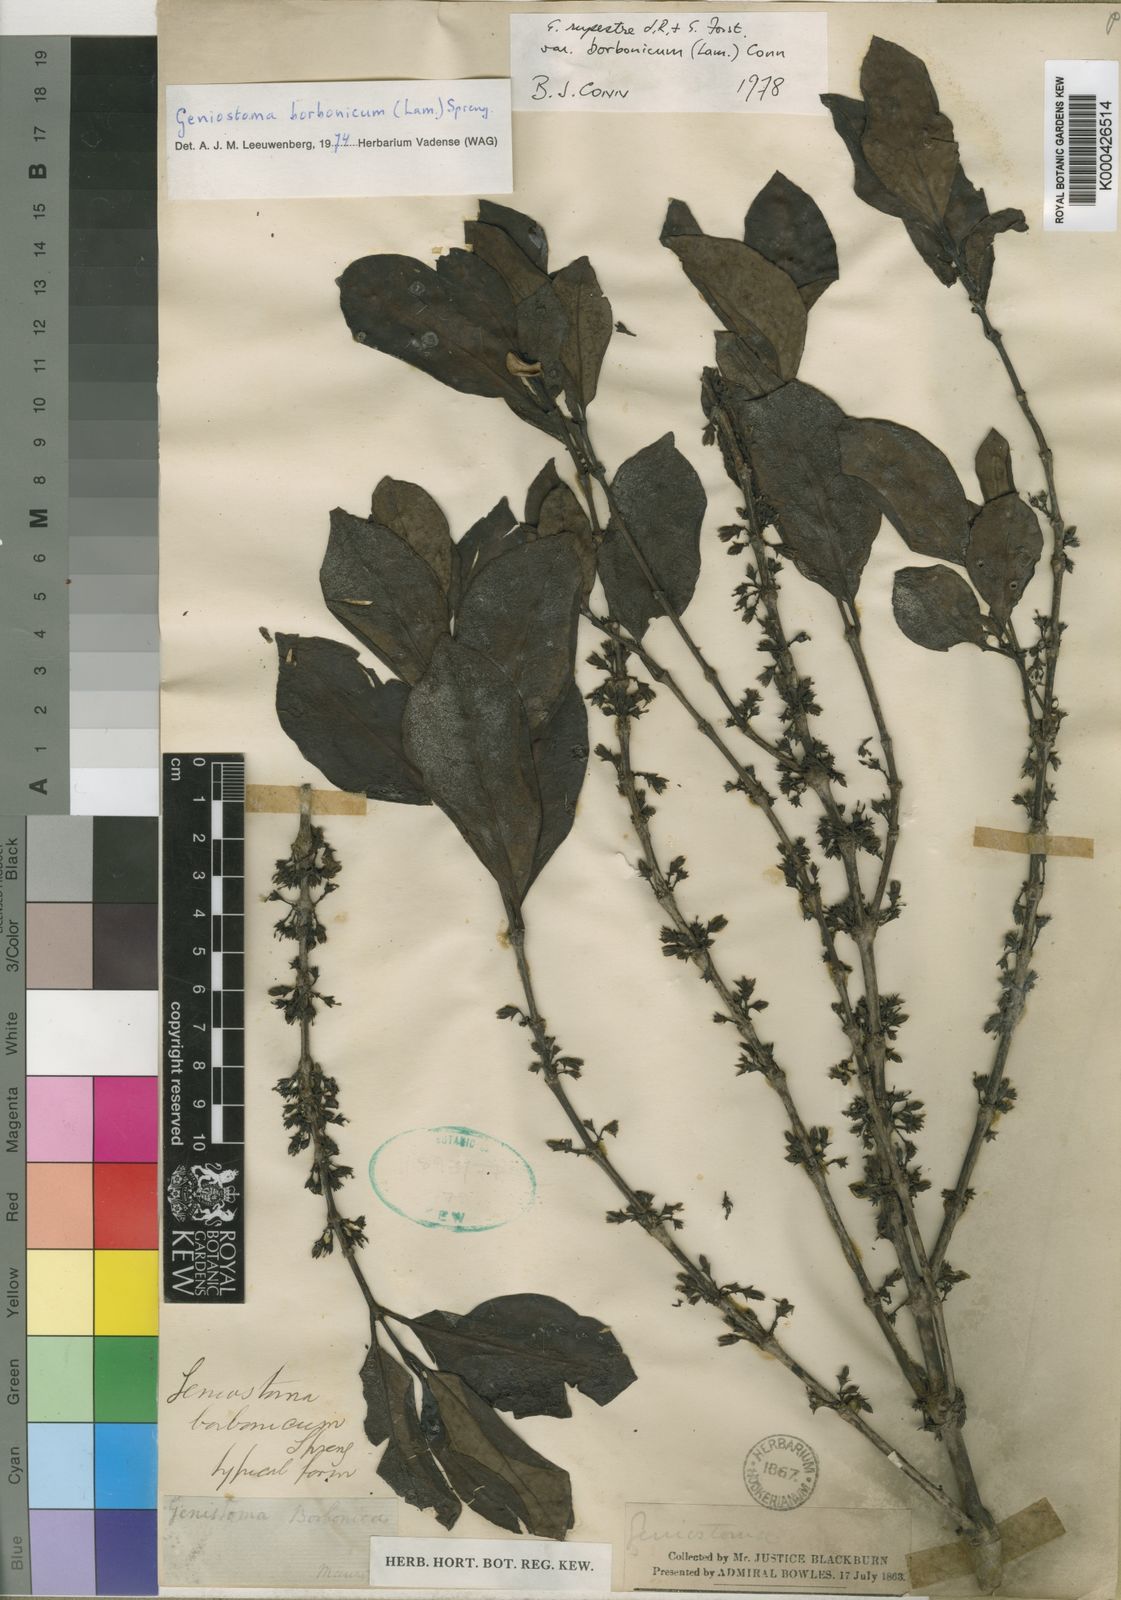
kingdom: Plantae
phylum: Tracheophyta
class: Magnoliopsida
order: Gentianales
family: Loganiaceae
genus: Geniostoma
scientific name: Geniostoma rupestre
